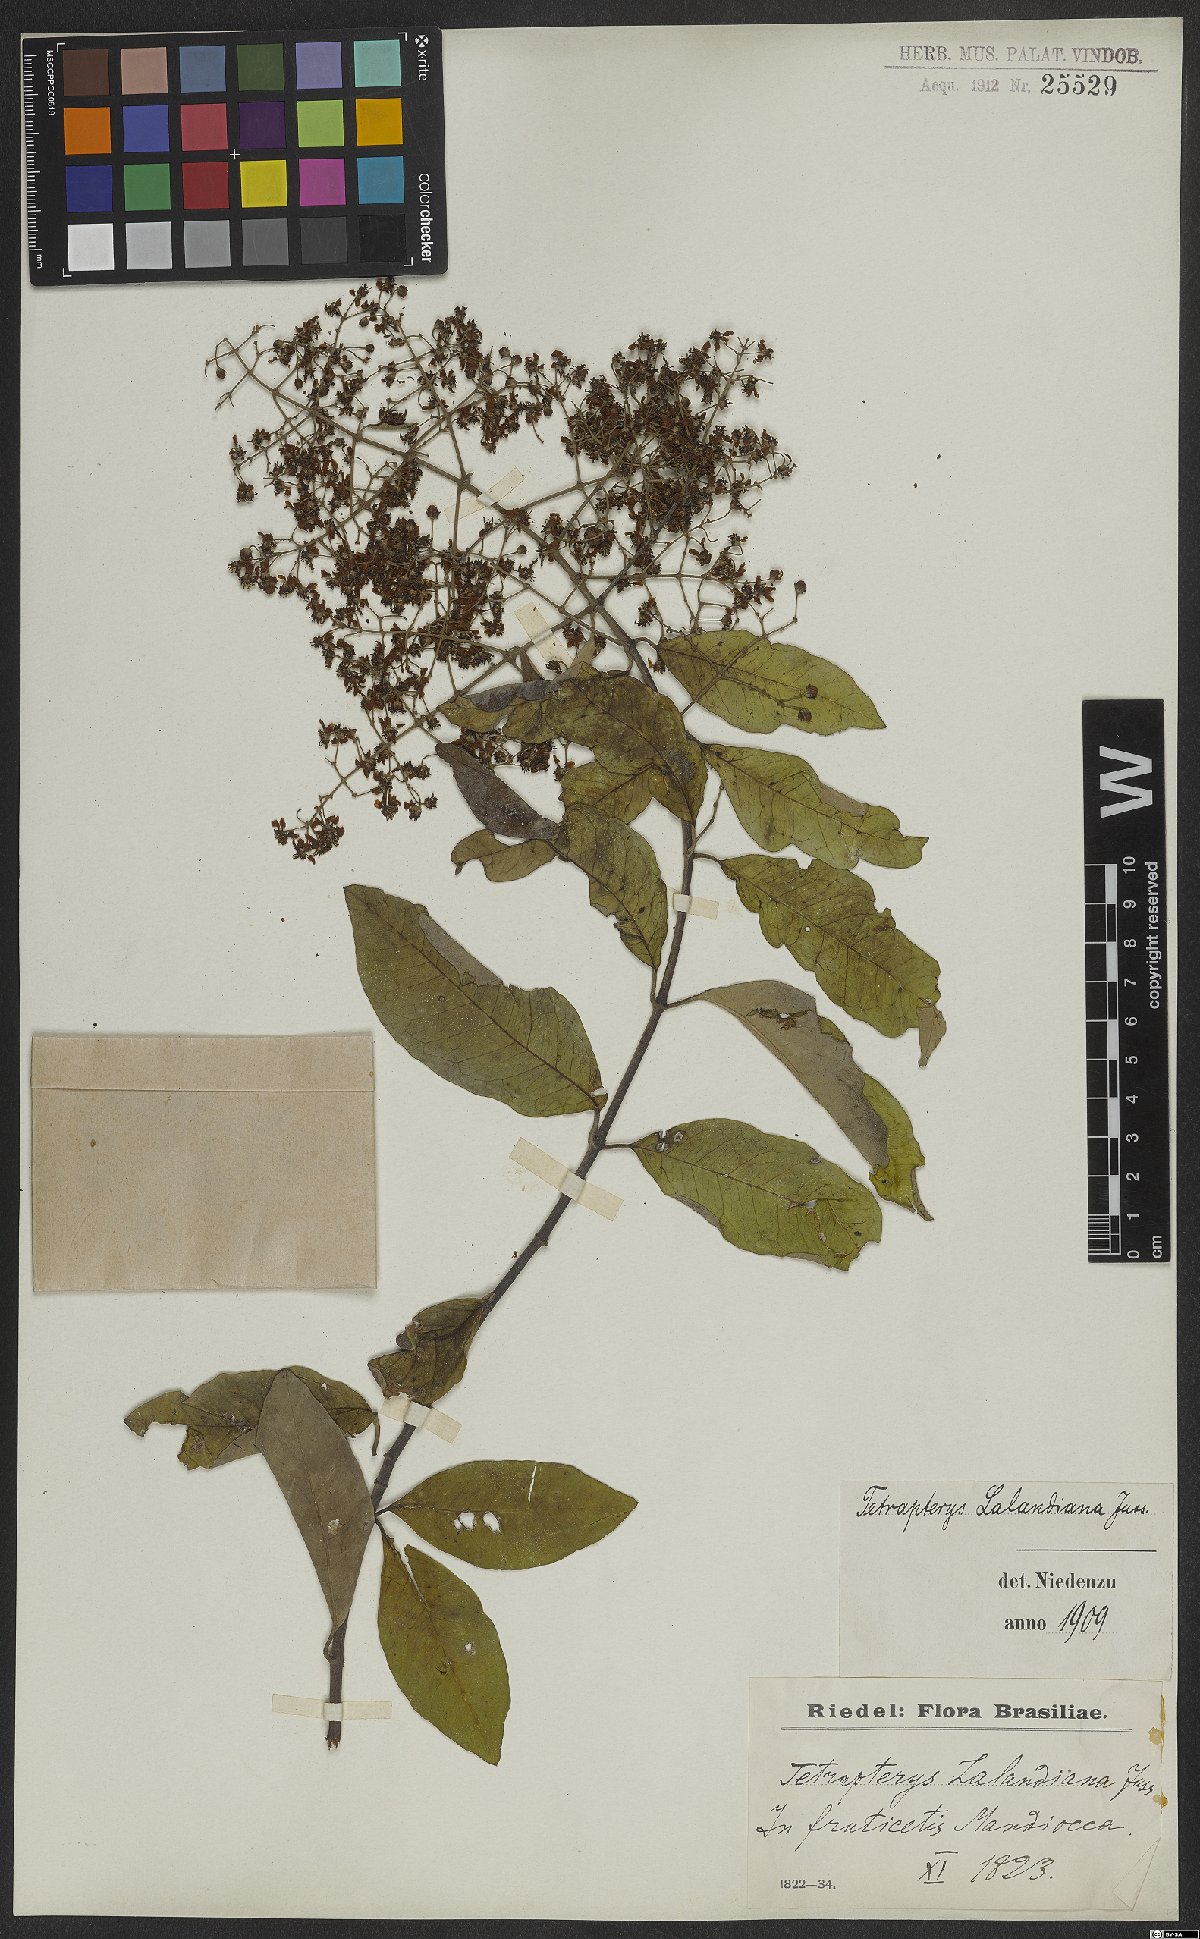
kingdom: Plantae
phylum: Tracheophyta
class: Magnoliopsida
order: Malpighiales
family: Malpighiaceae
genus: Niedenzuella
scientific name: Niedenzuella sericea
